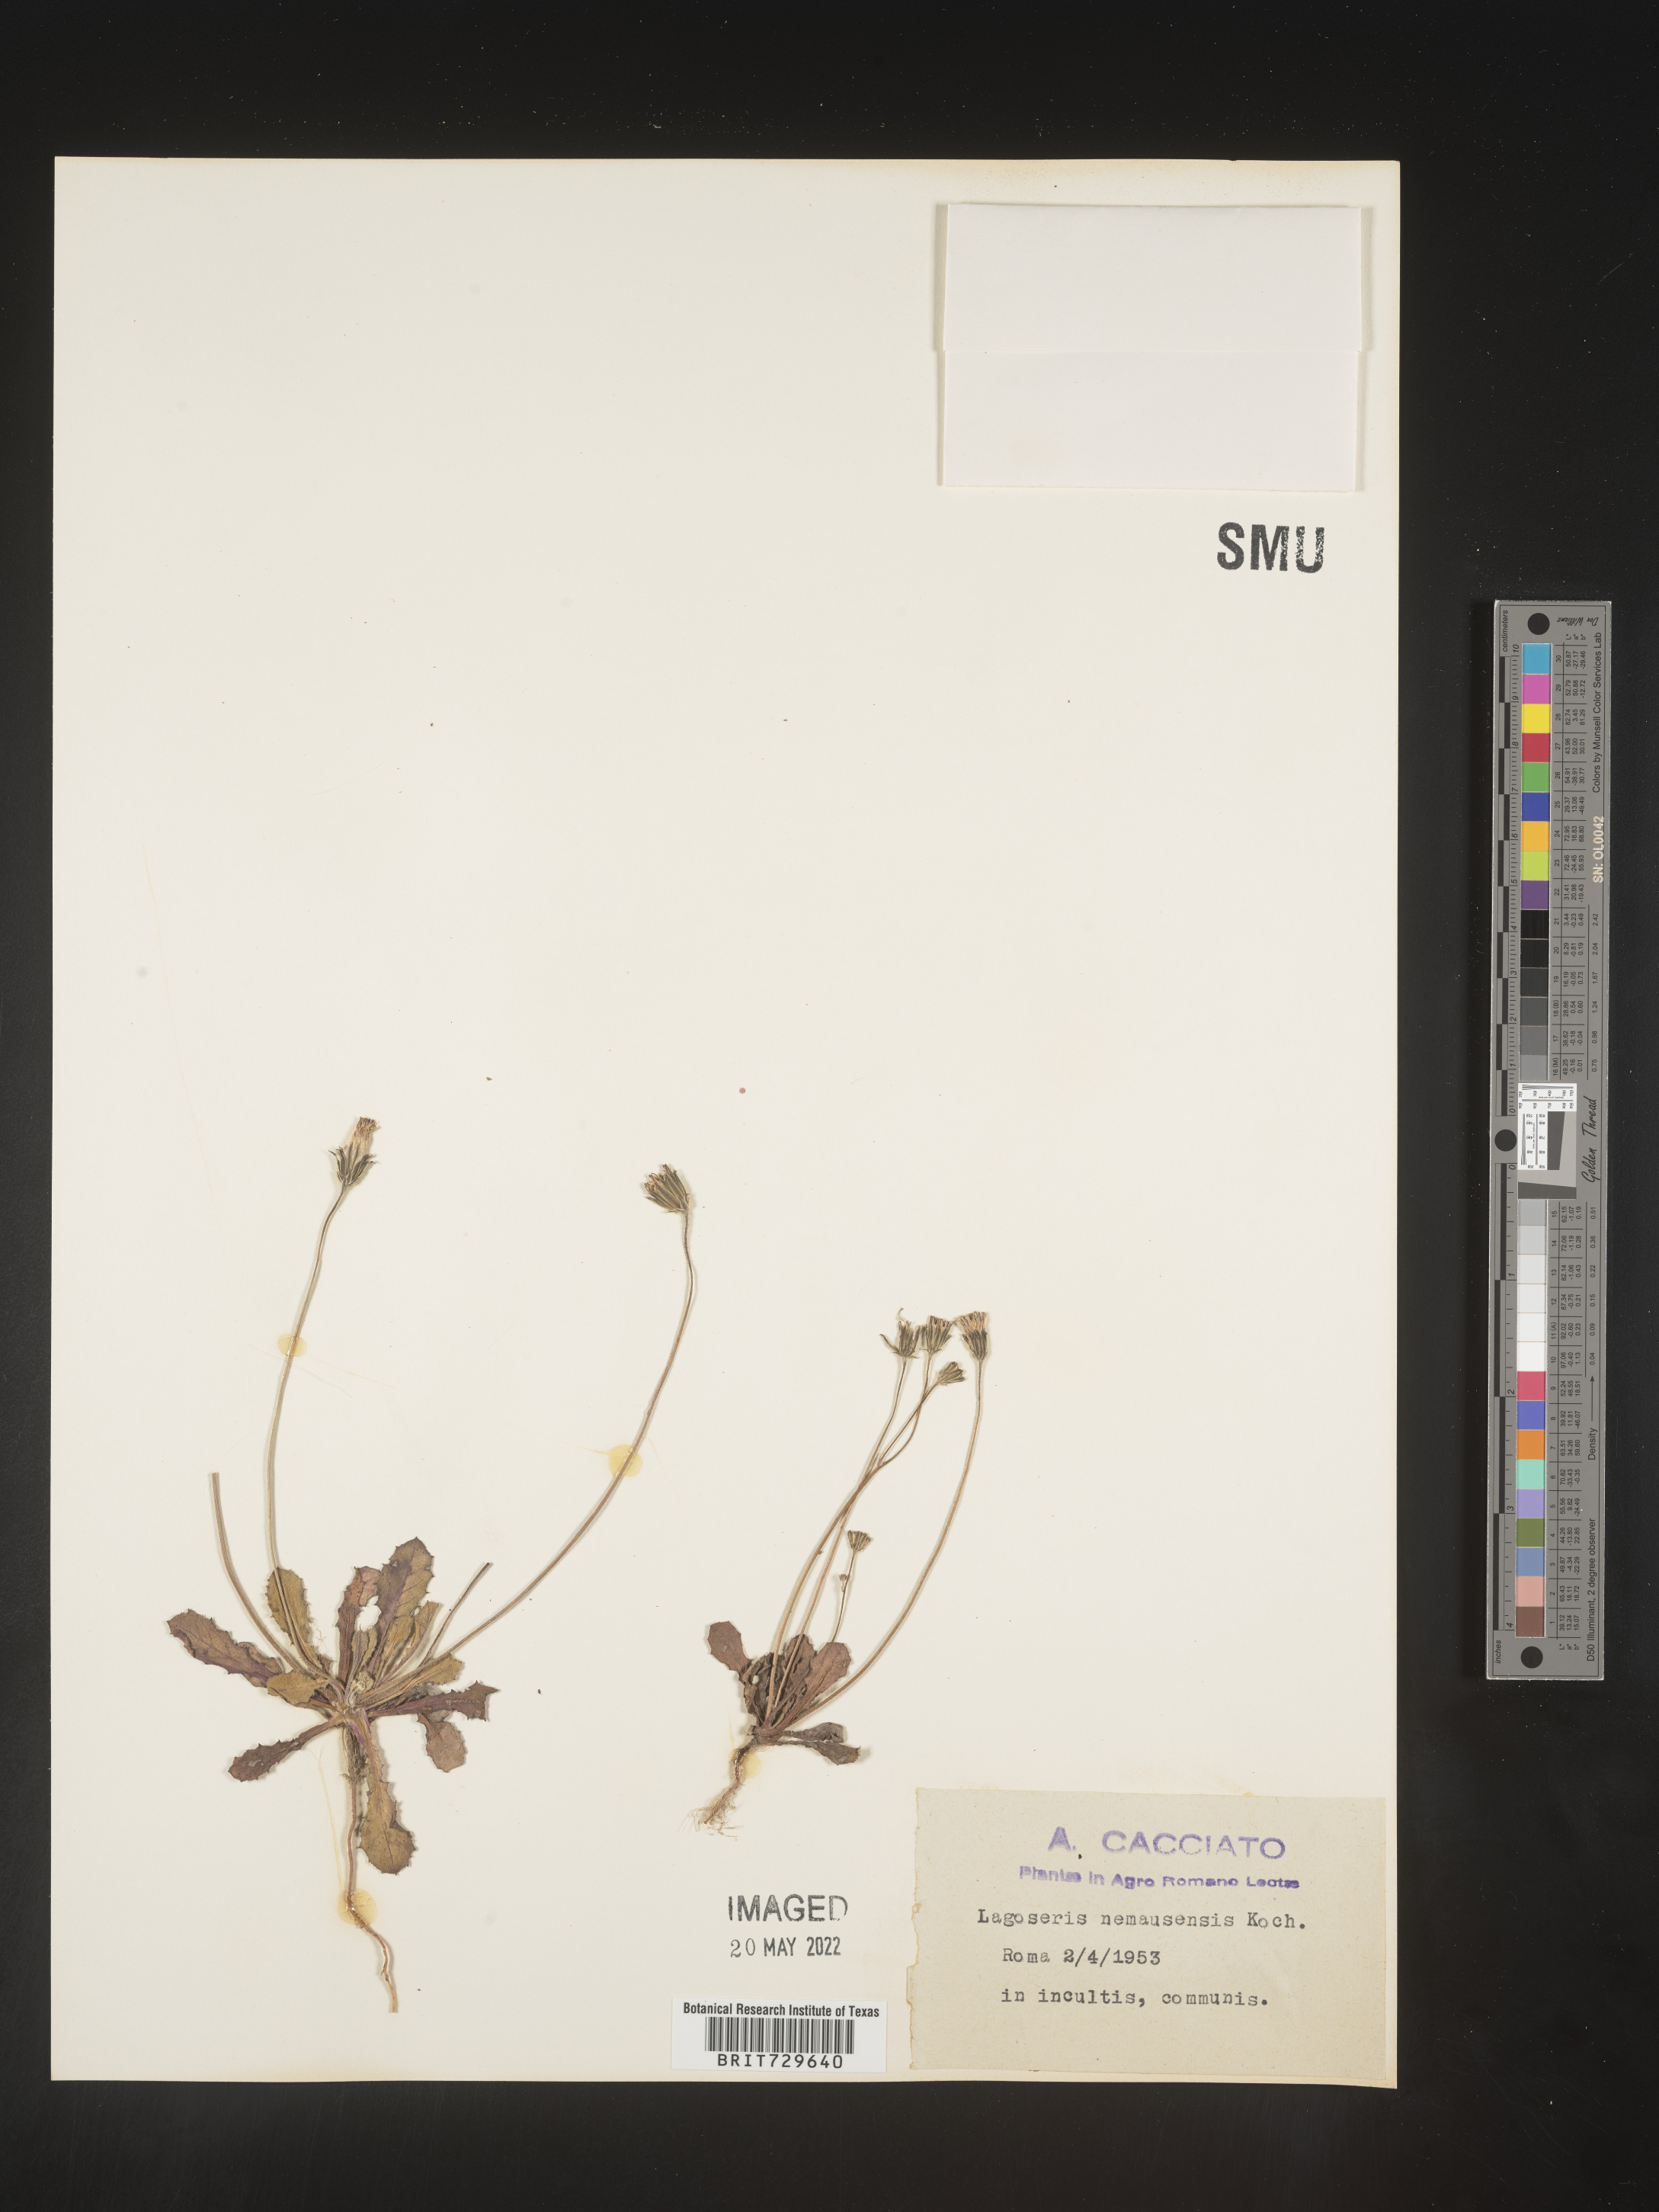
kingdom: Plantae
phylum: Tracheophyta
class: Magnoliopsida
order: Asterales
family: Asteraceae
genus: Lagoseris
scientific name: Lagoseris
